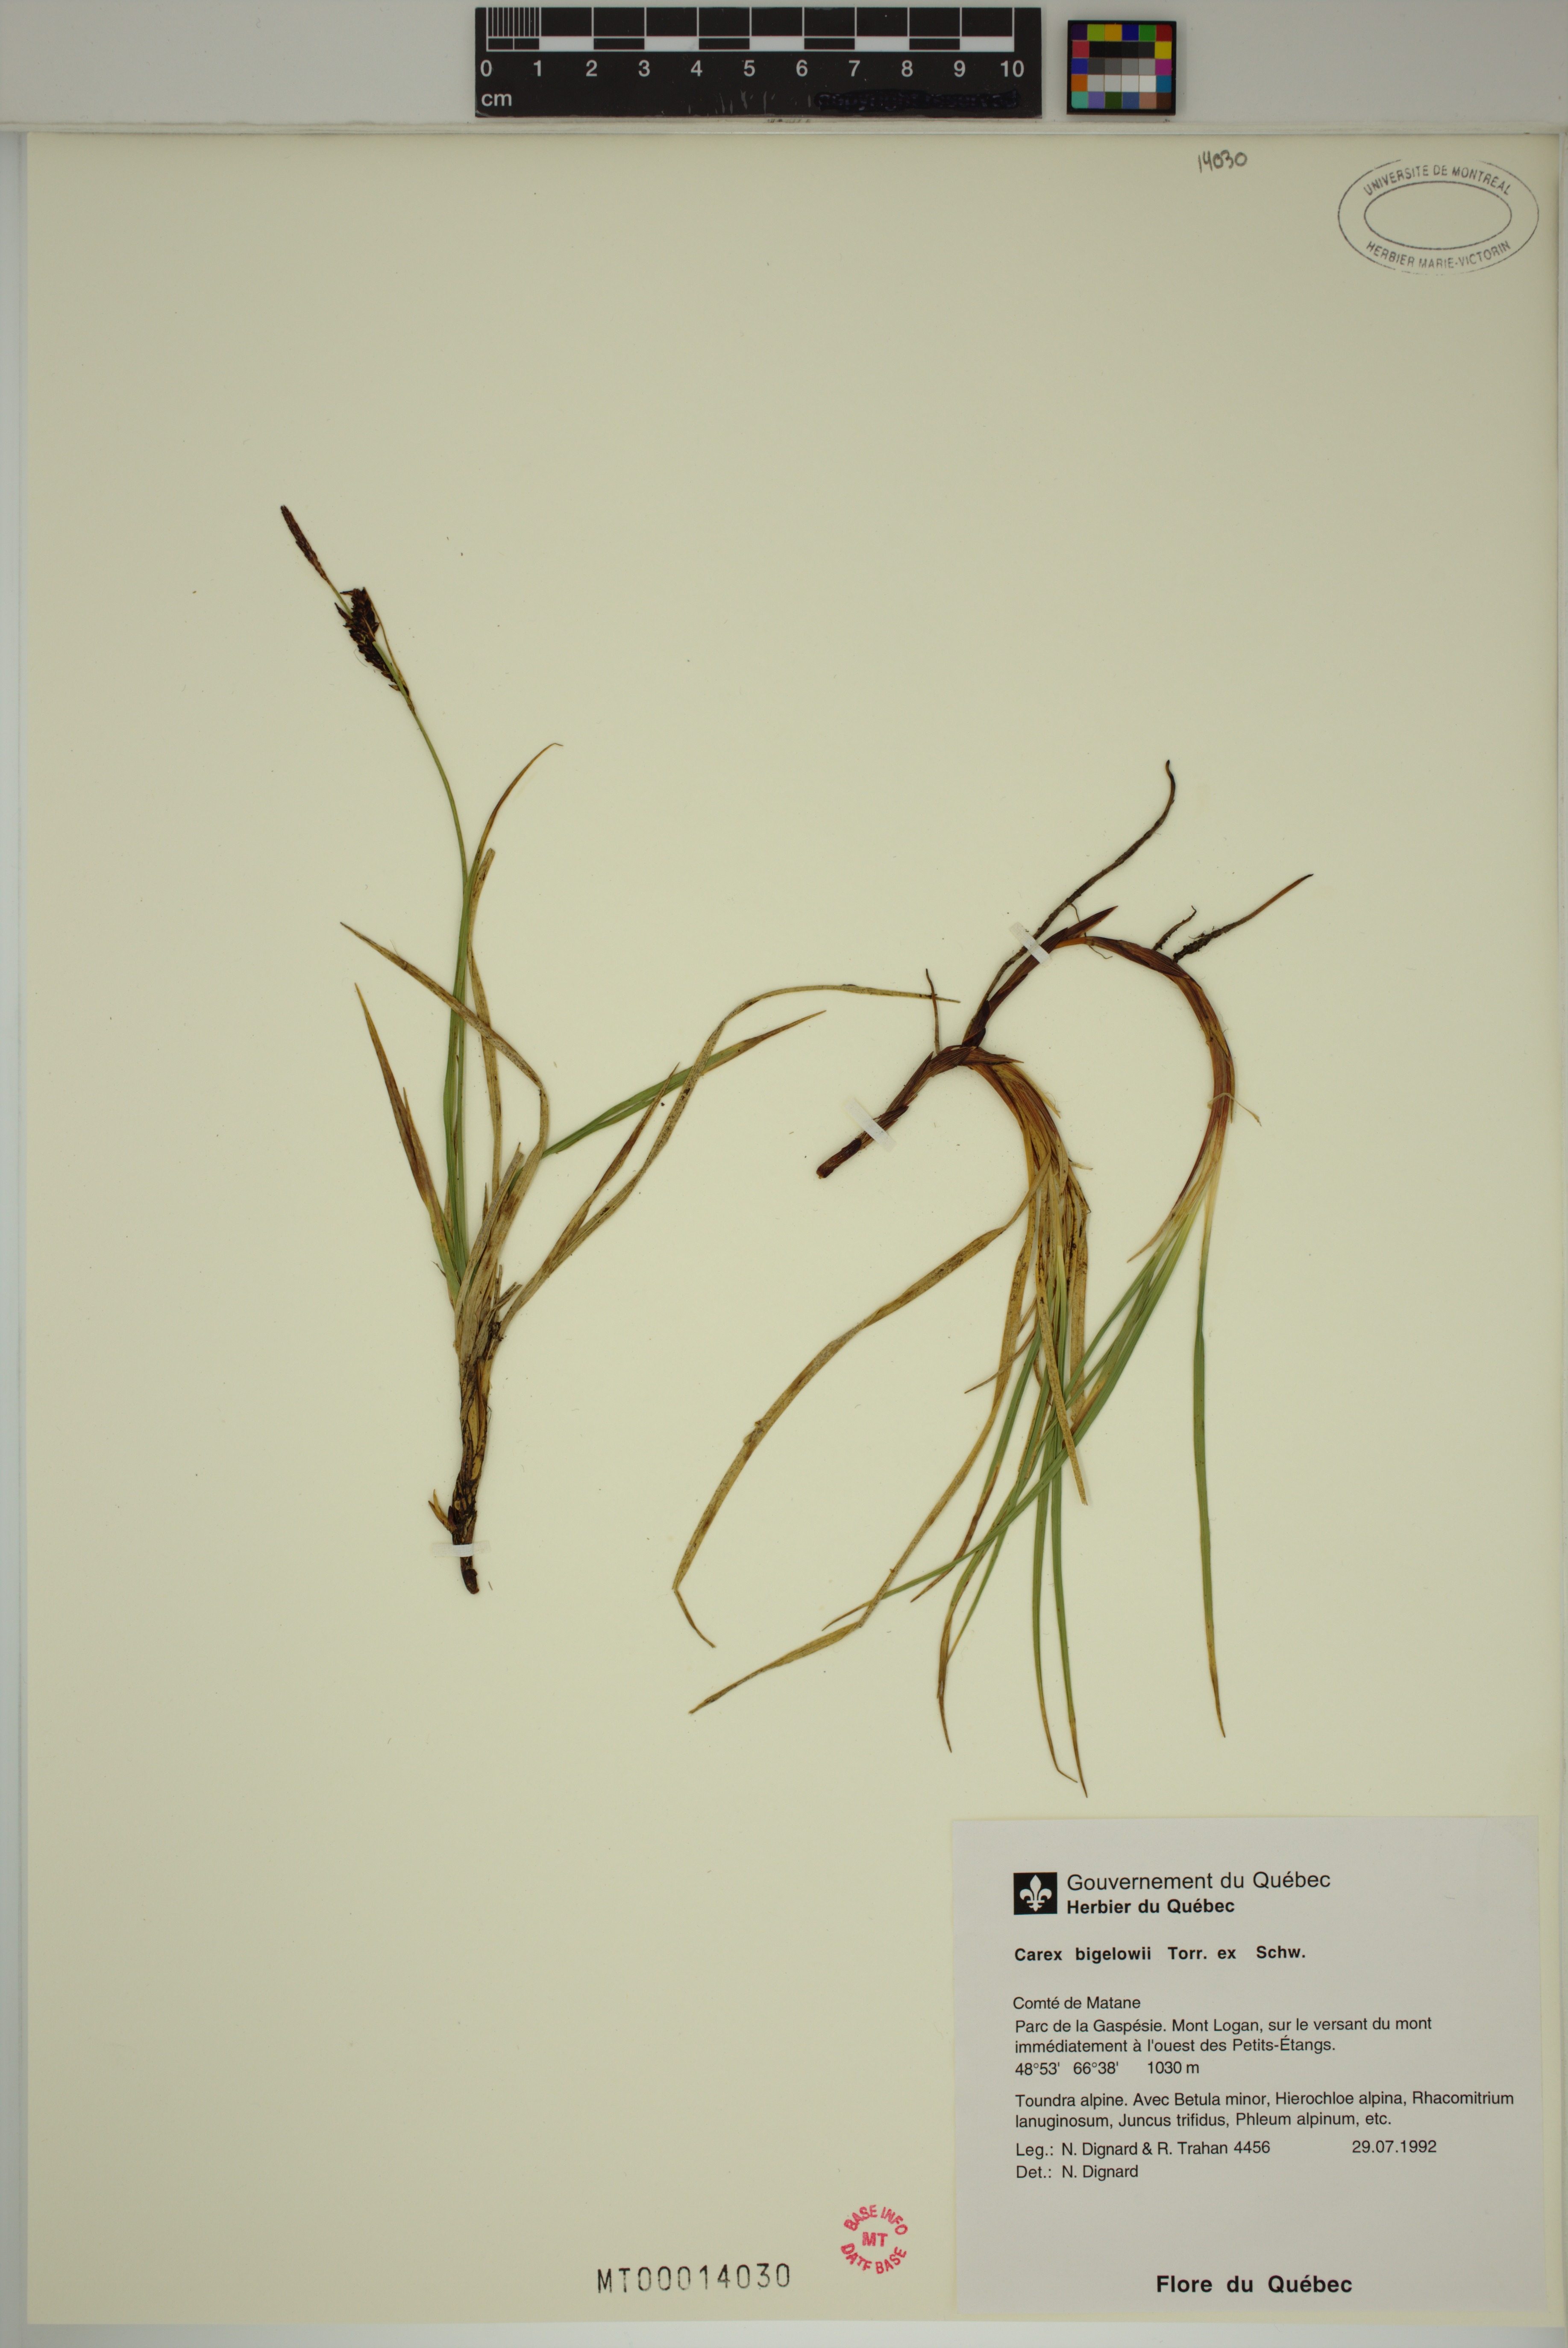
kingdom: Plantae
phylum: Tracheophyta
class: Liliopsida
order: Poales
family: Cyperaceae
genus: Carex
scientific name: Carex bigelowii
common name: Stiff sedge
